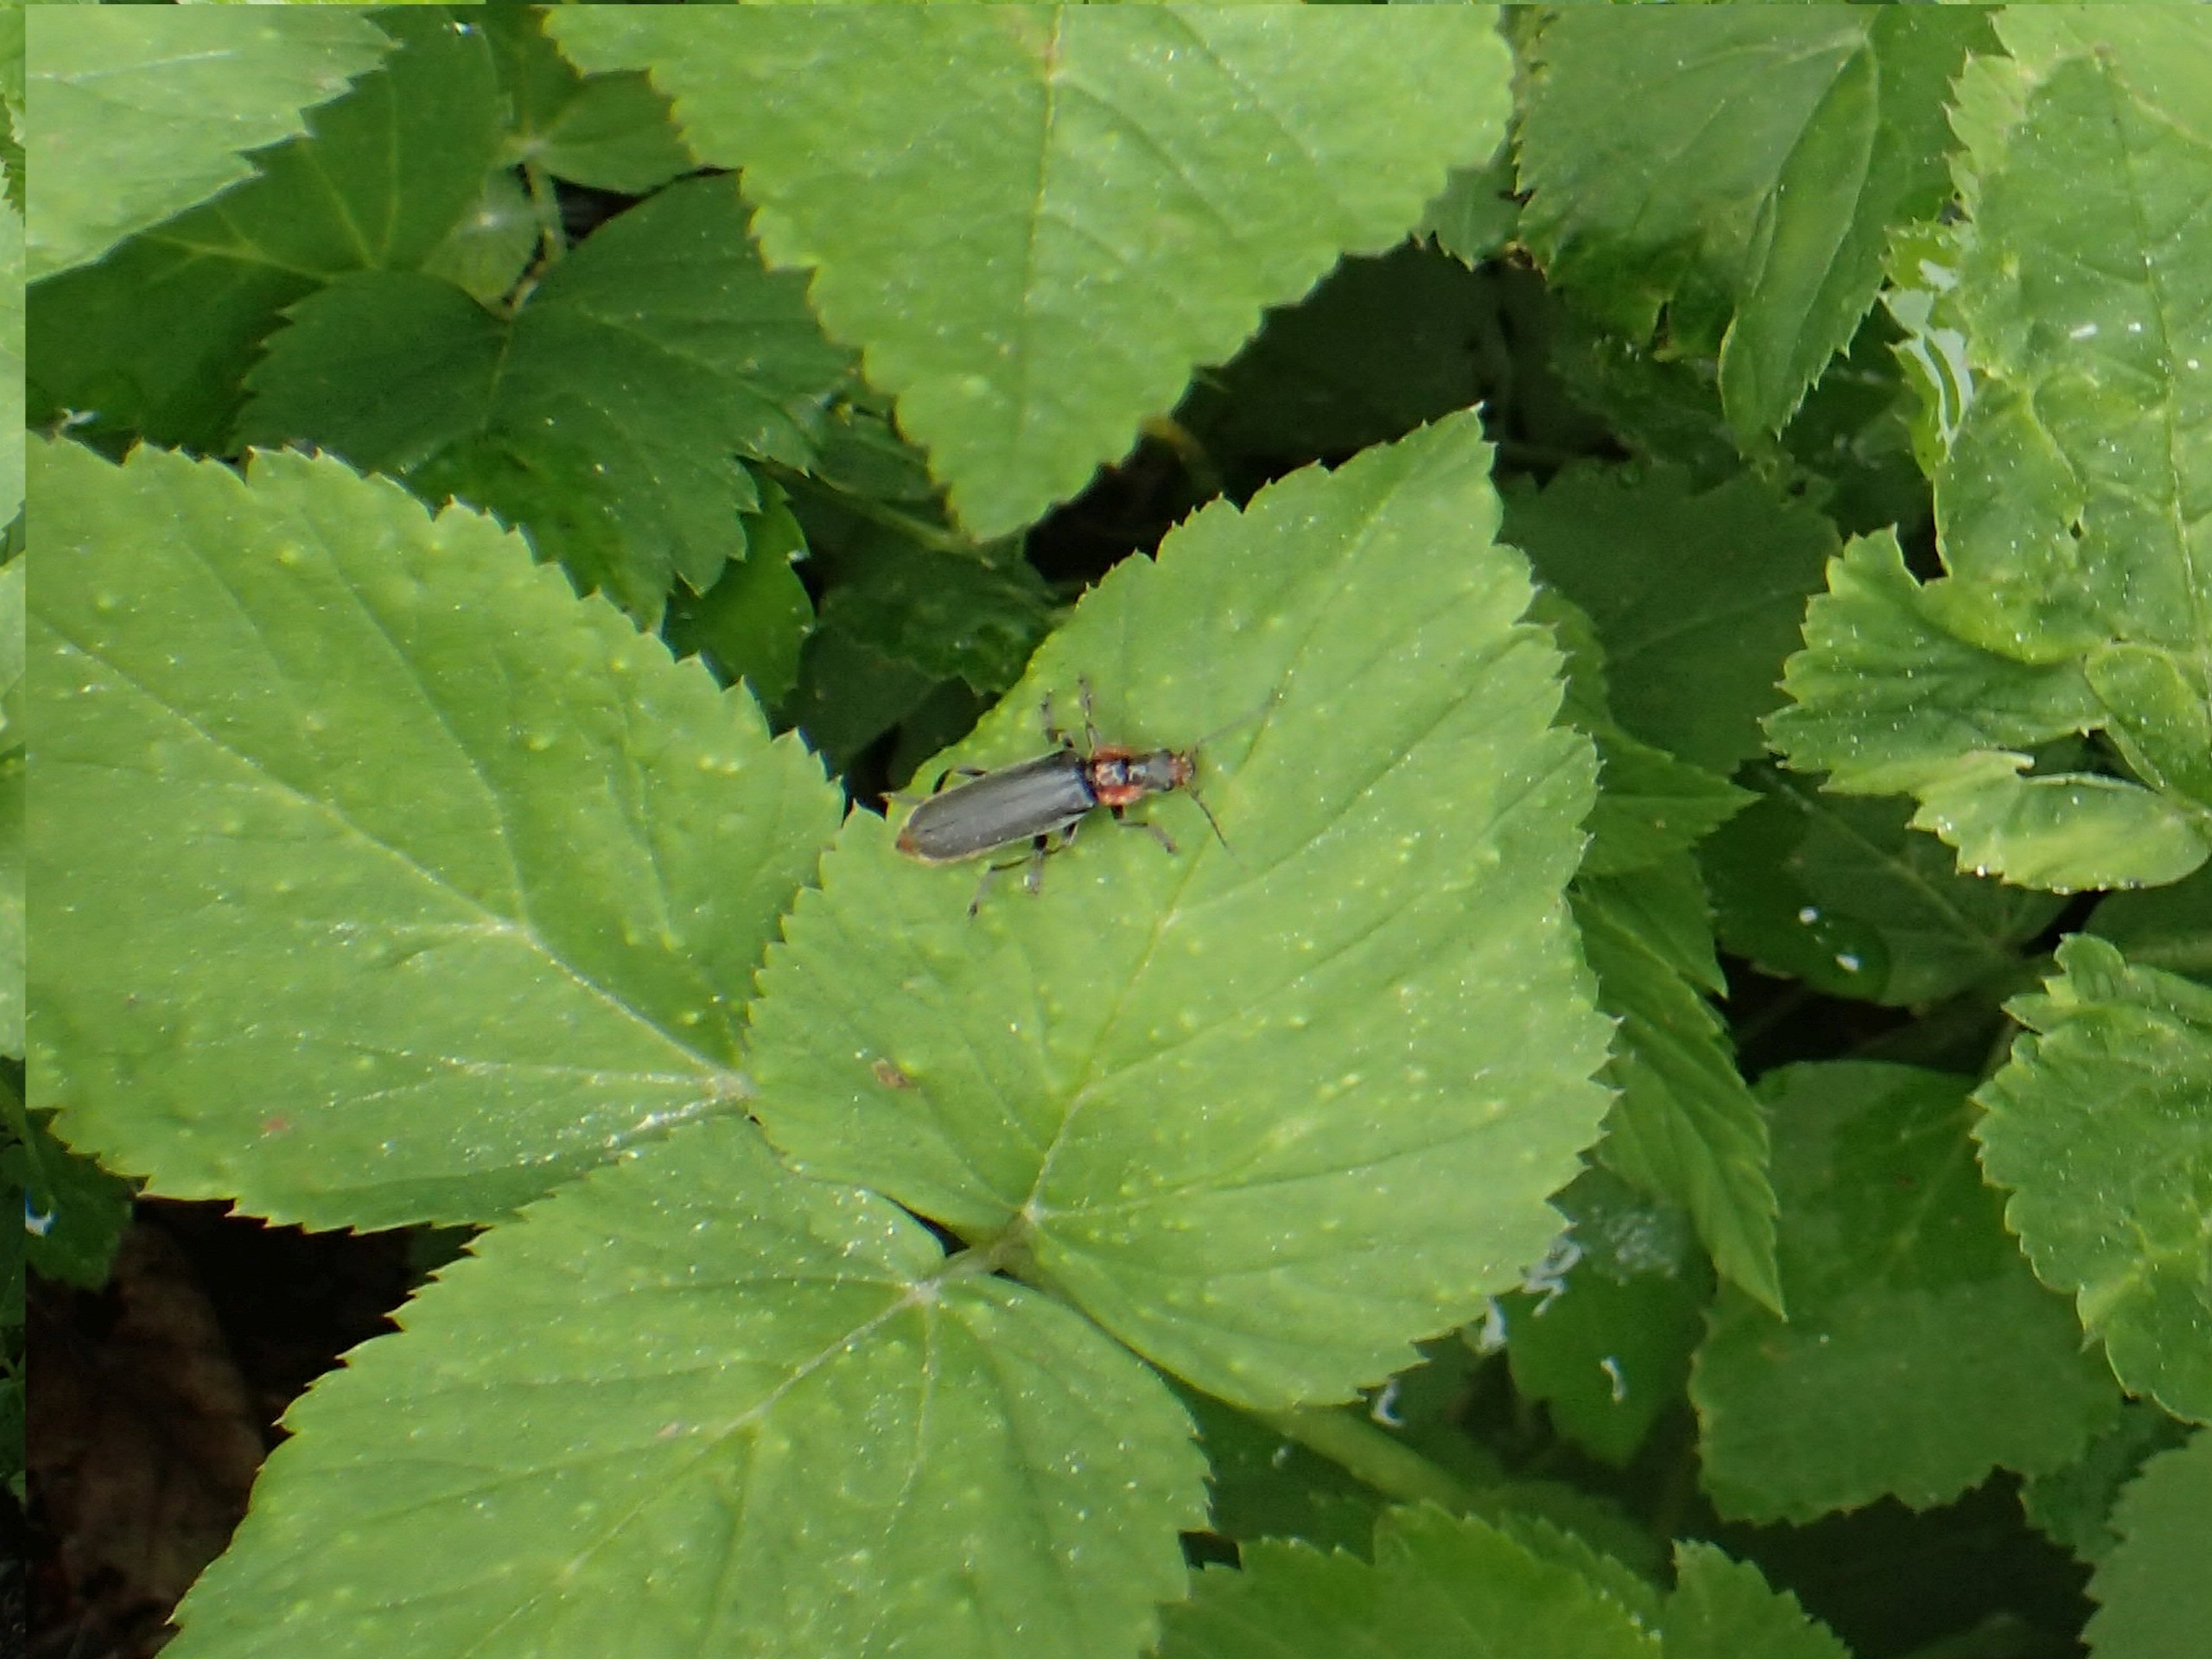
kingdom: Animalia
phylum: Arthropoda
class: Insecta
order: Coleoptera
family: Cantharidae
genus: Cantharis
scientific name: Cantharis fusca
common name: Stor blødvinge
